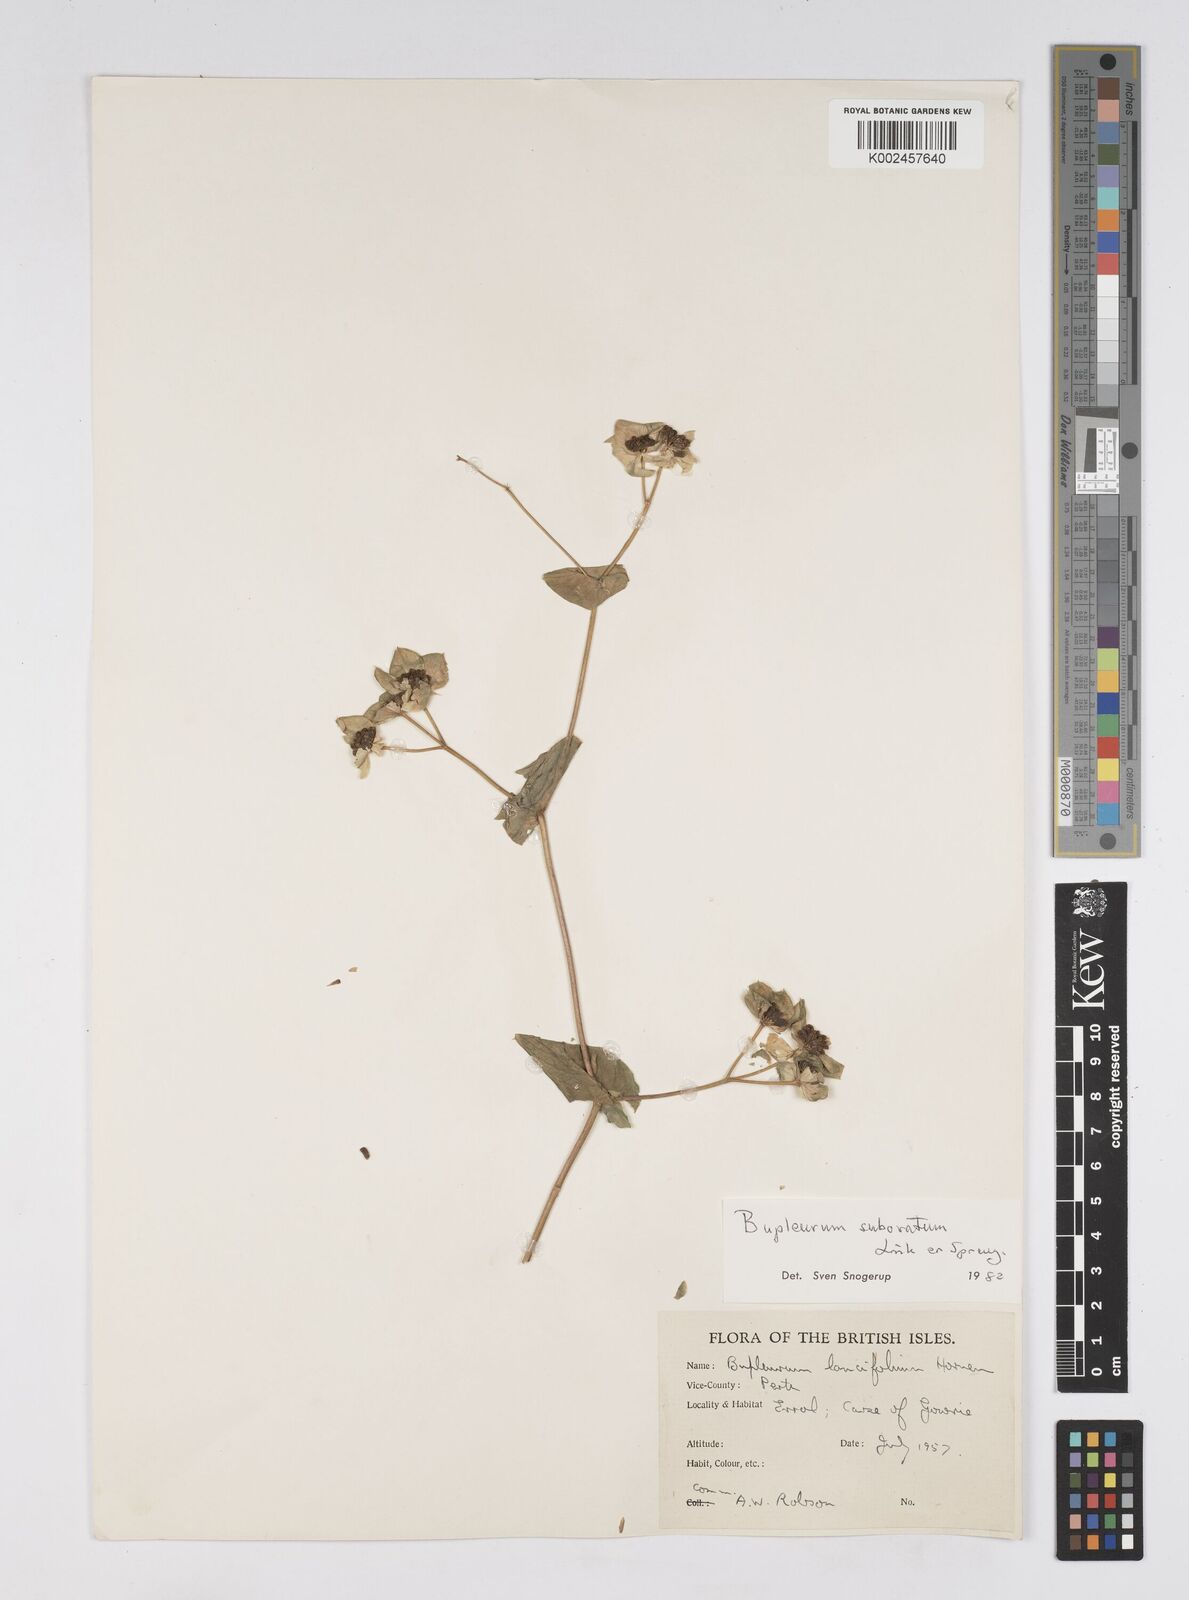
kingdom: Plantae
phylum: Tracheophyta
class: Magnoliopsida
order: Apiales
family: Apiaceae
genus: Bupleurum
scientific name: Bupleurum subovatum
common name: False thorow-wax
